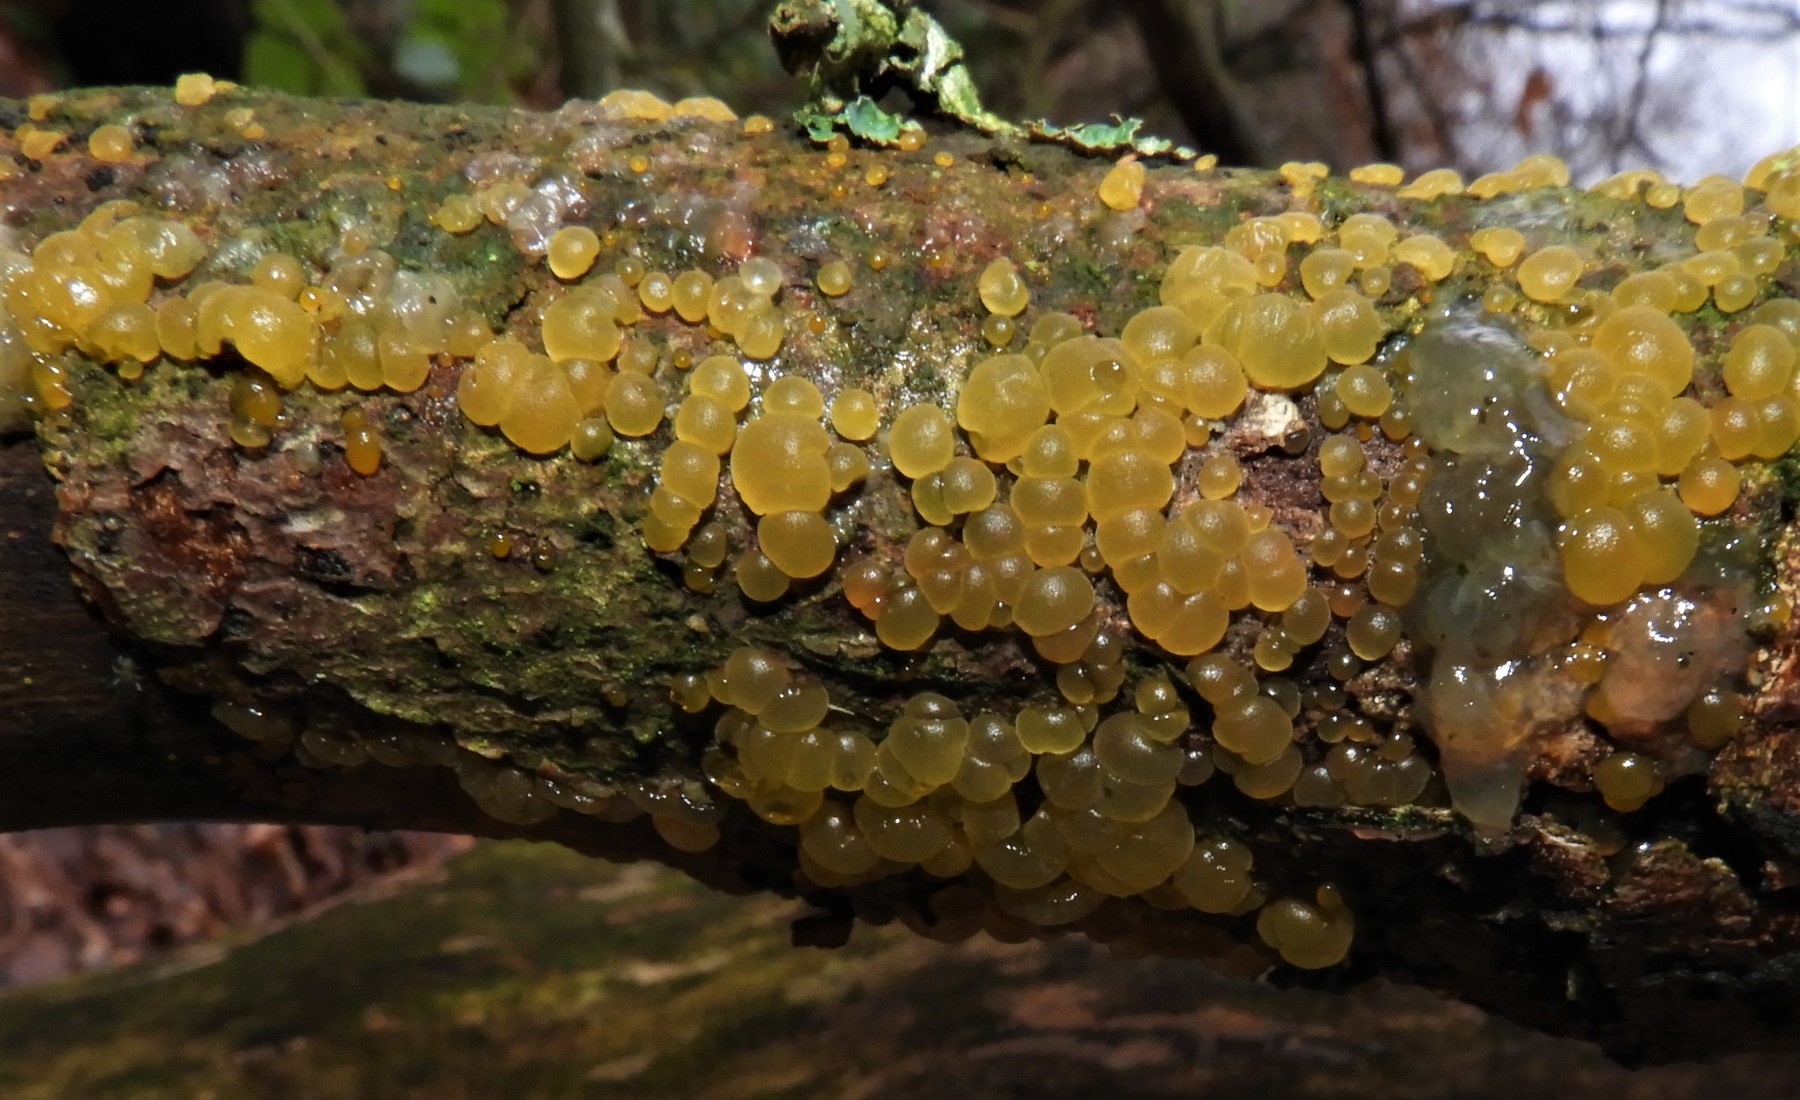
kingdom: Fungi
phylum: Basidiomycota
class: Dacrymycetes
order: Dacrymycetales
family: Dacrymycetaceae
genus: Dacrymyces
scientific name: Dacrymyces
